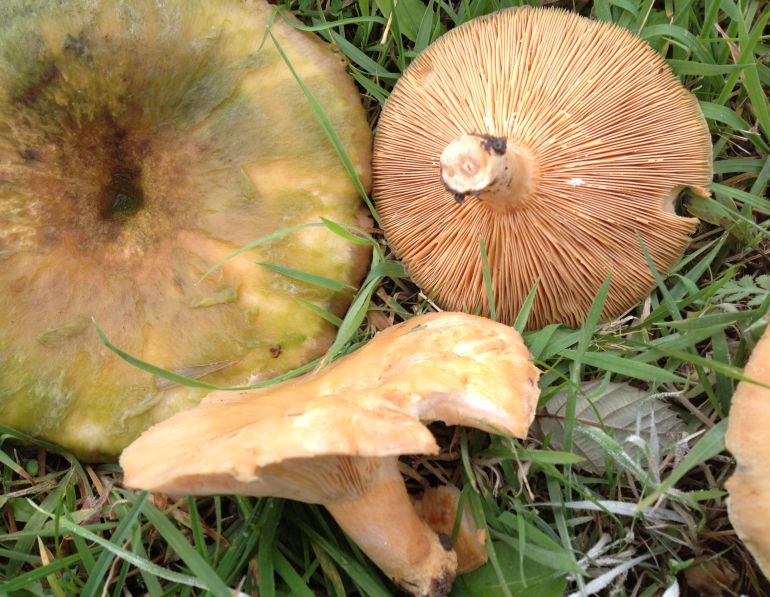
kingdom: Fungi
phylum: Basidiomycota
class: Agaricomycetes
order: Russulales
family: Russulaceae
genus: Lactarius
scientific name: Lactarius torminosus
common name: skægget mælkehat
